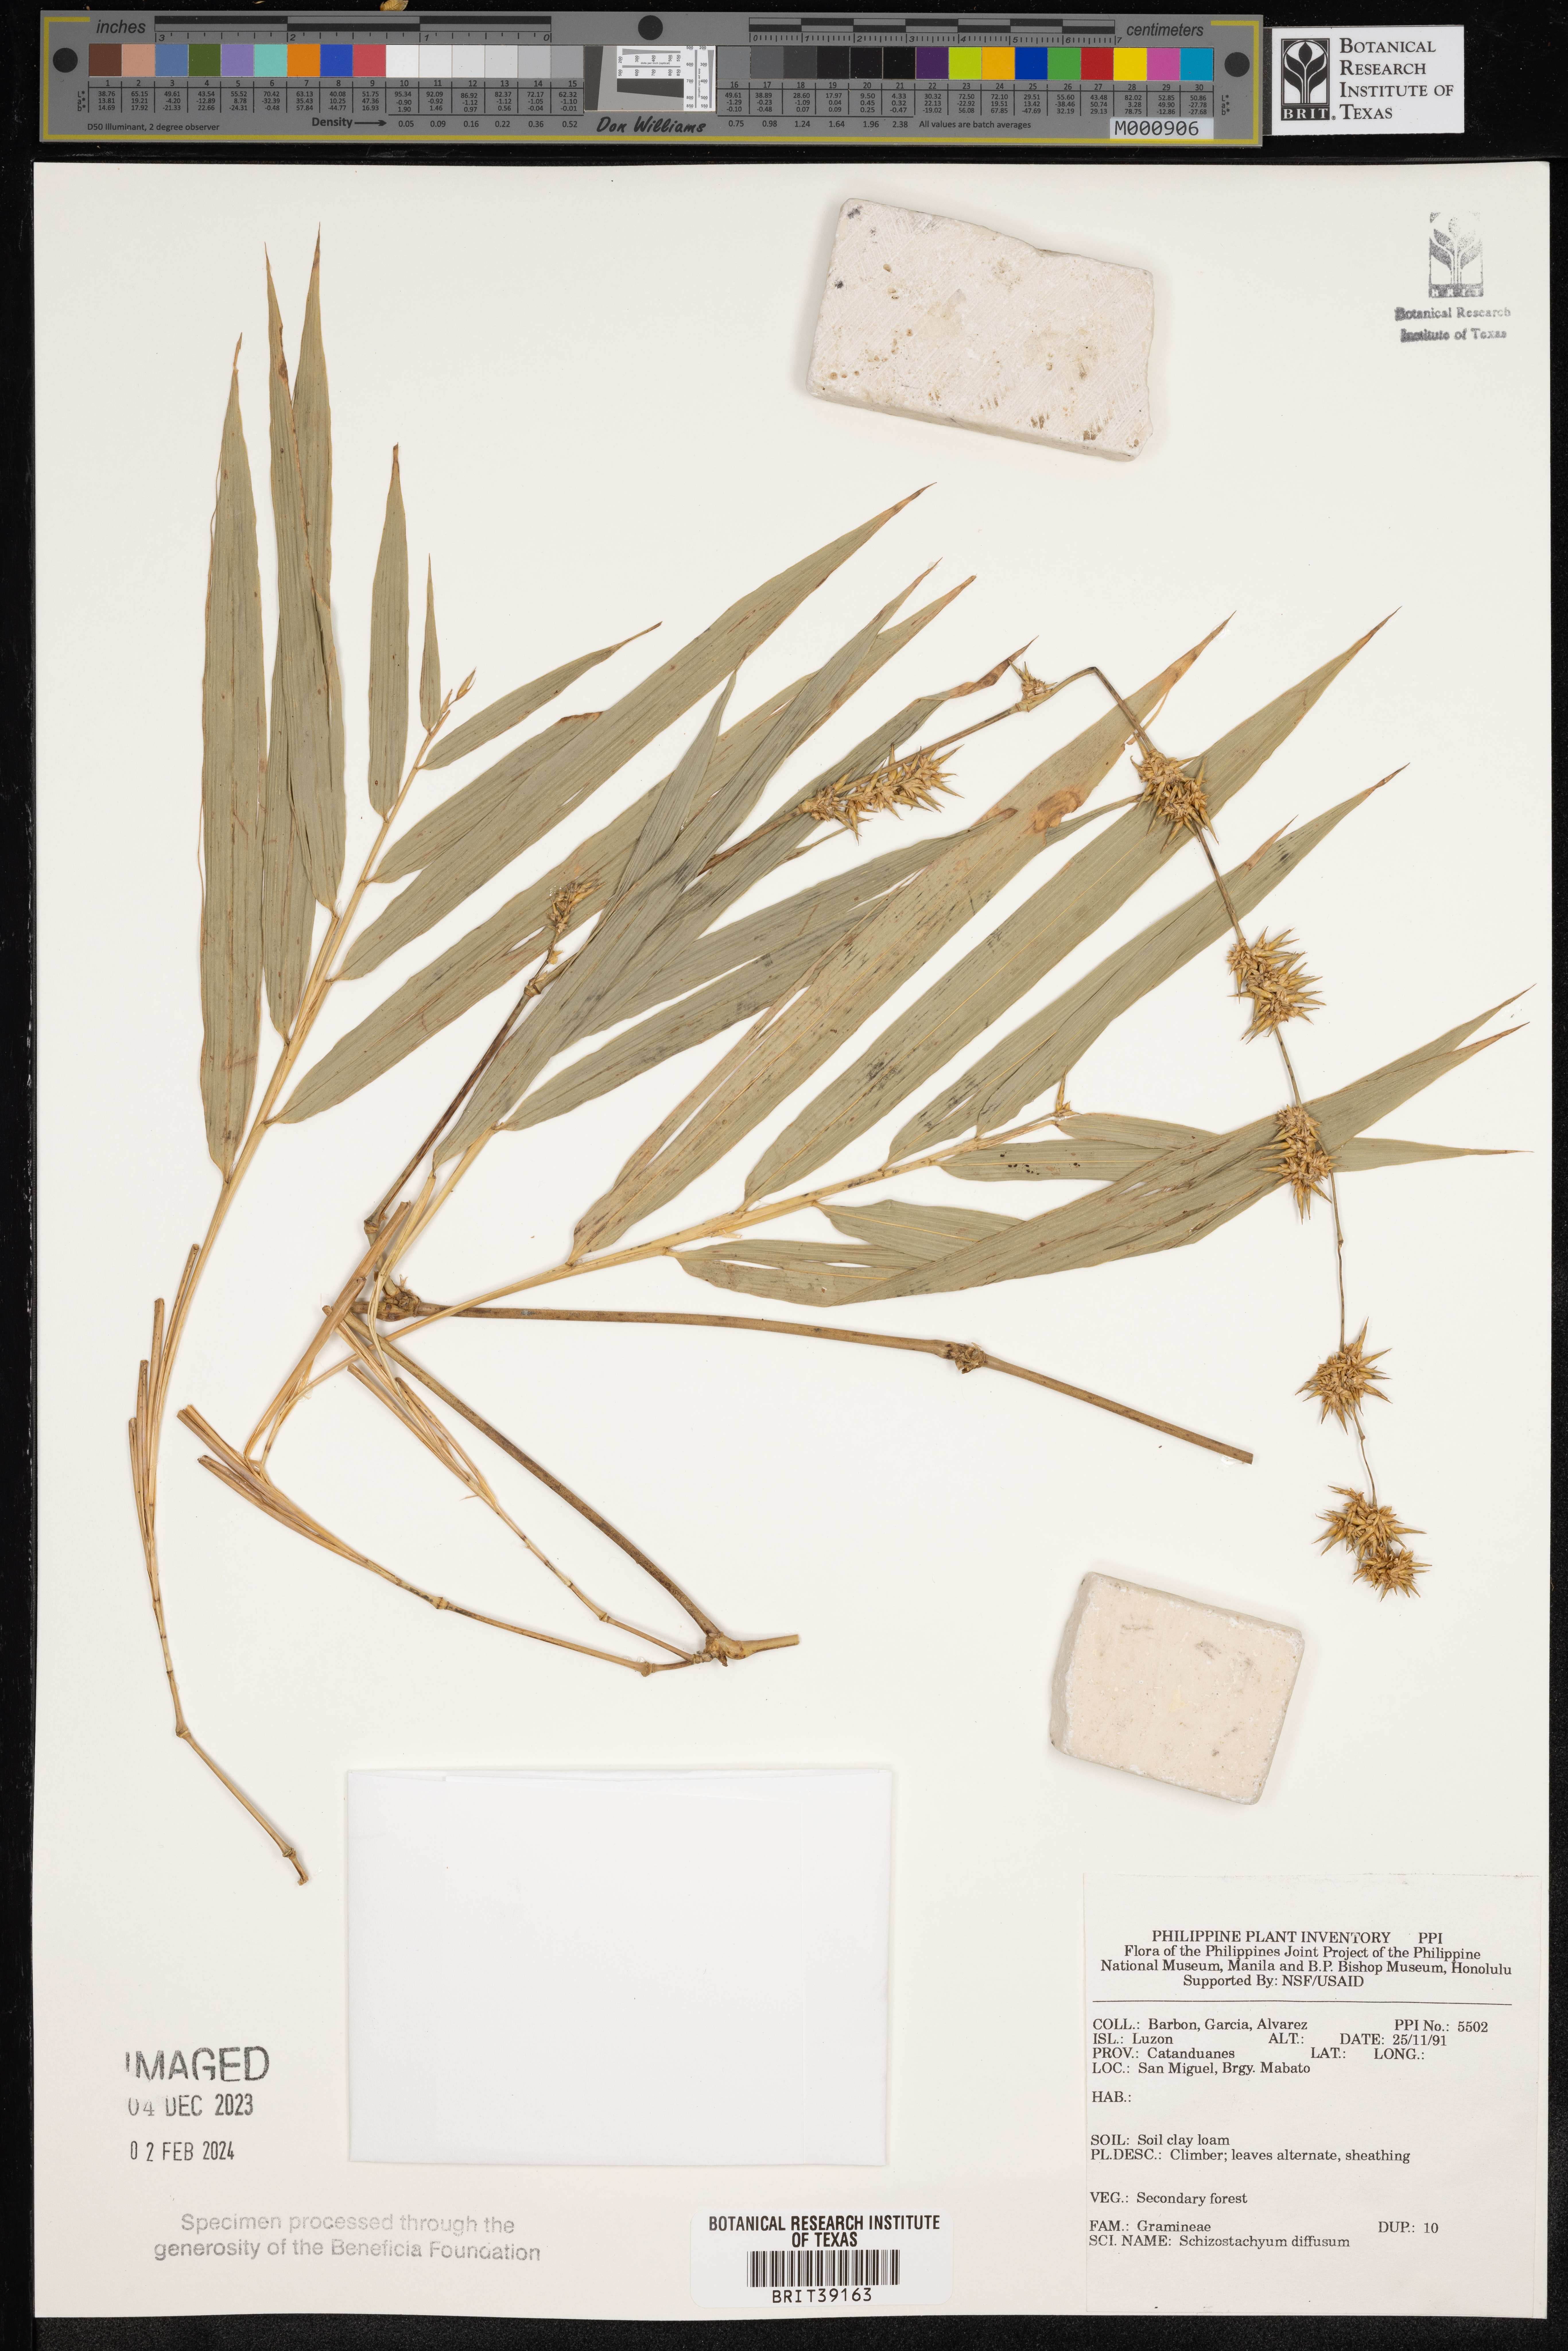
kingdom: Plantae
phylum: Tracheophyta
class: Liliopsida
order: Poales
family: Poaceae
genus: Bambusa
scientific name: Bambusa diffusa
